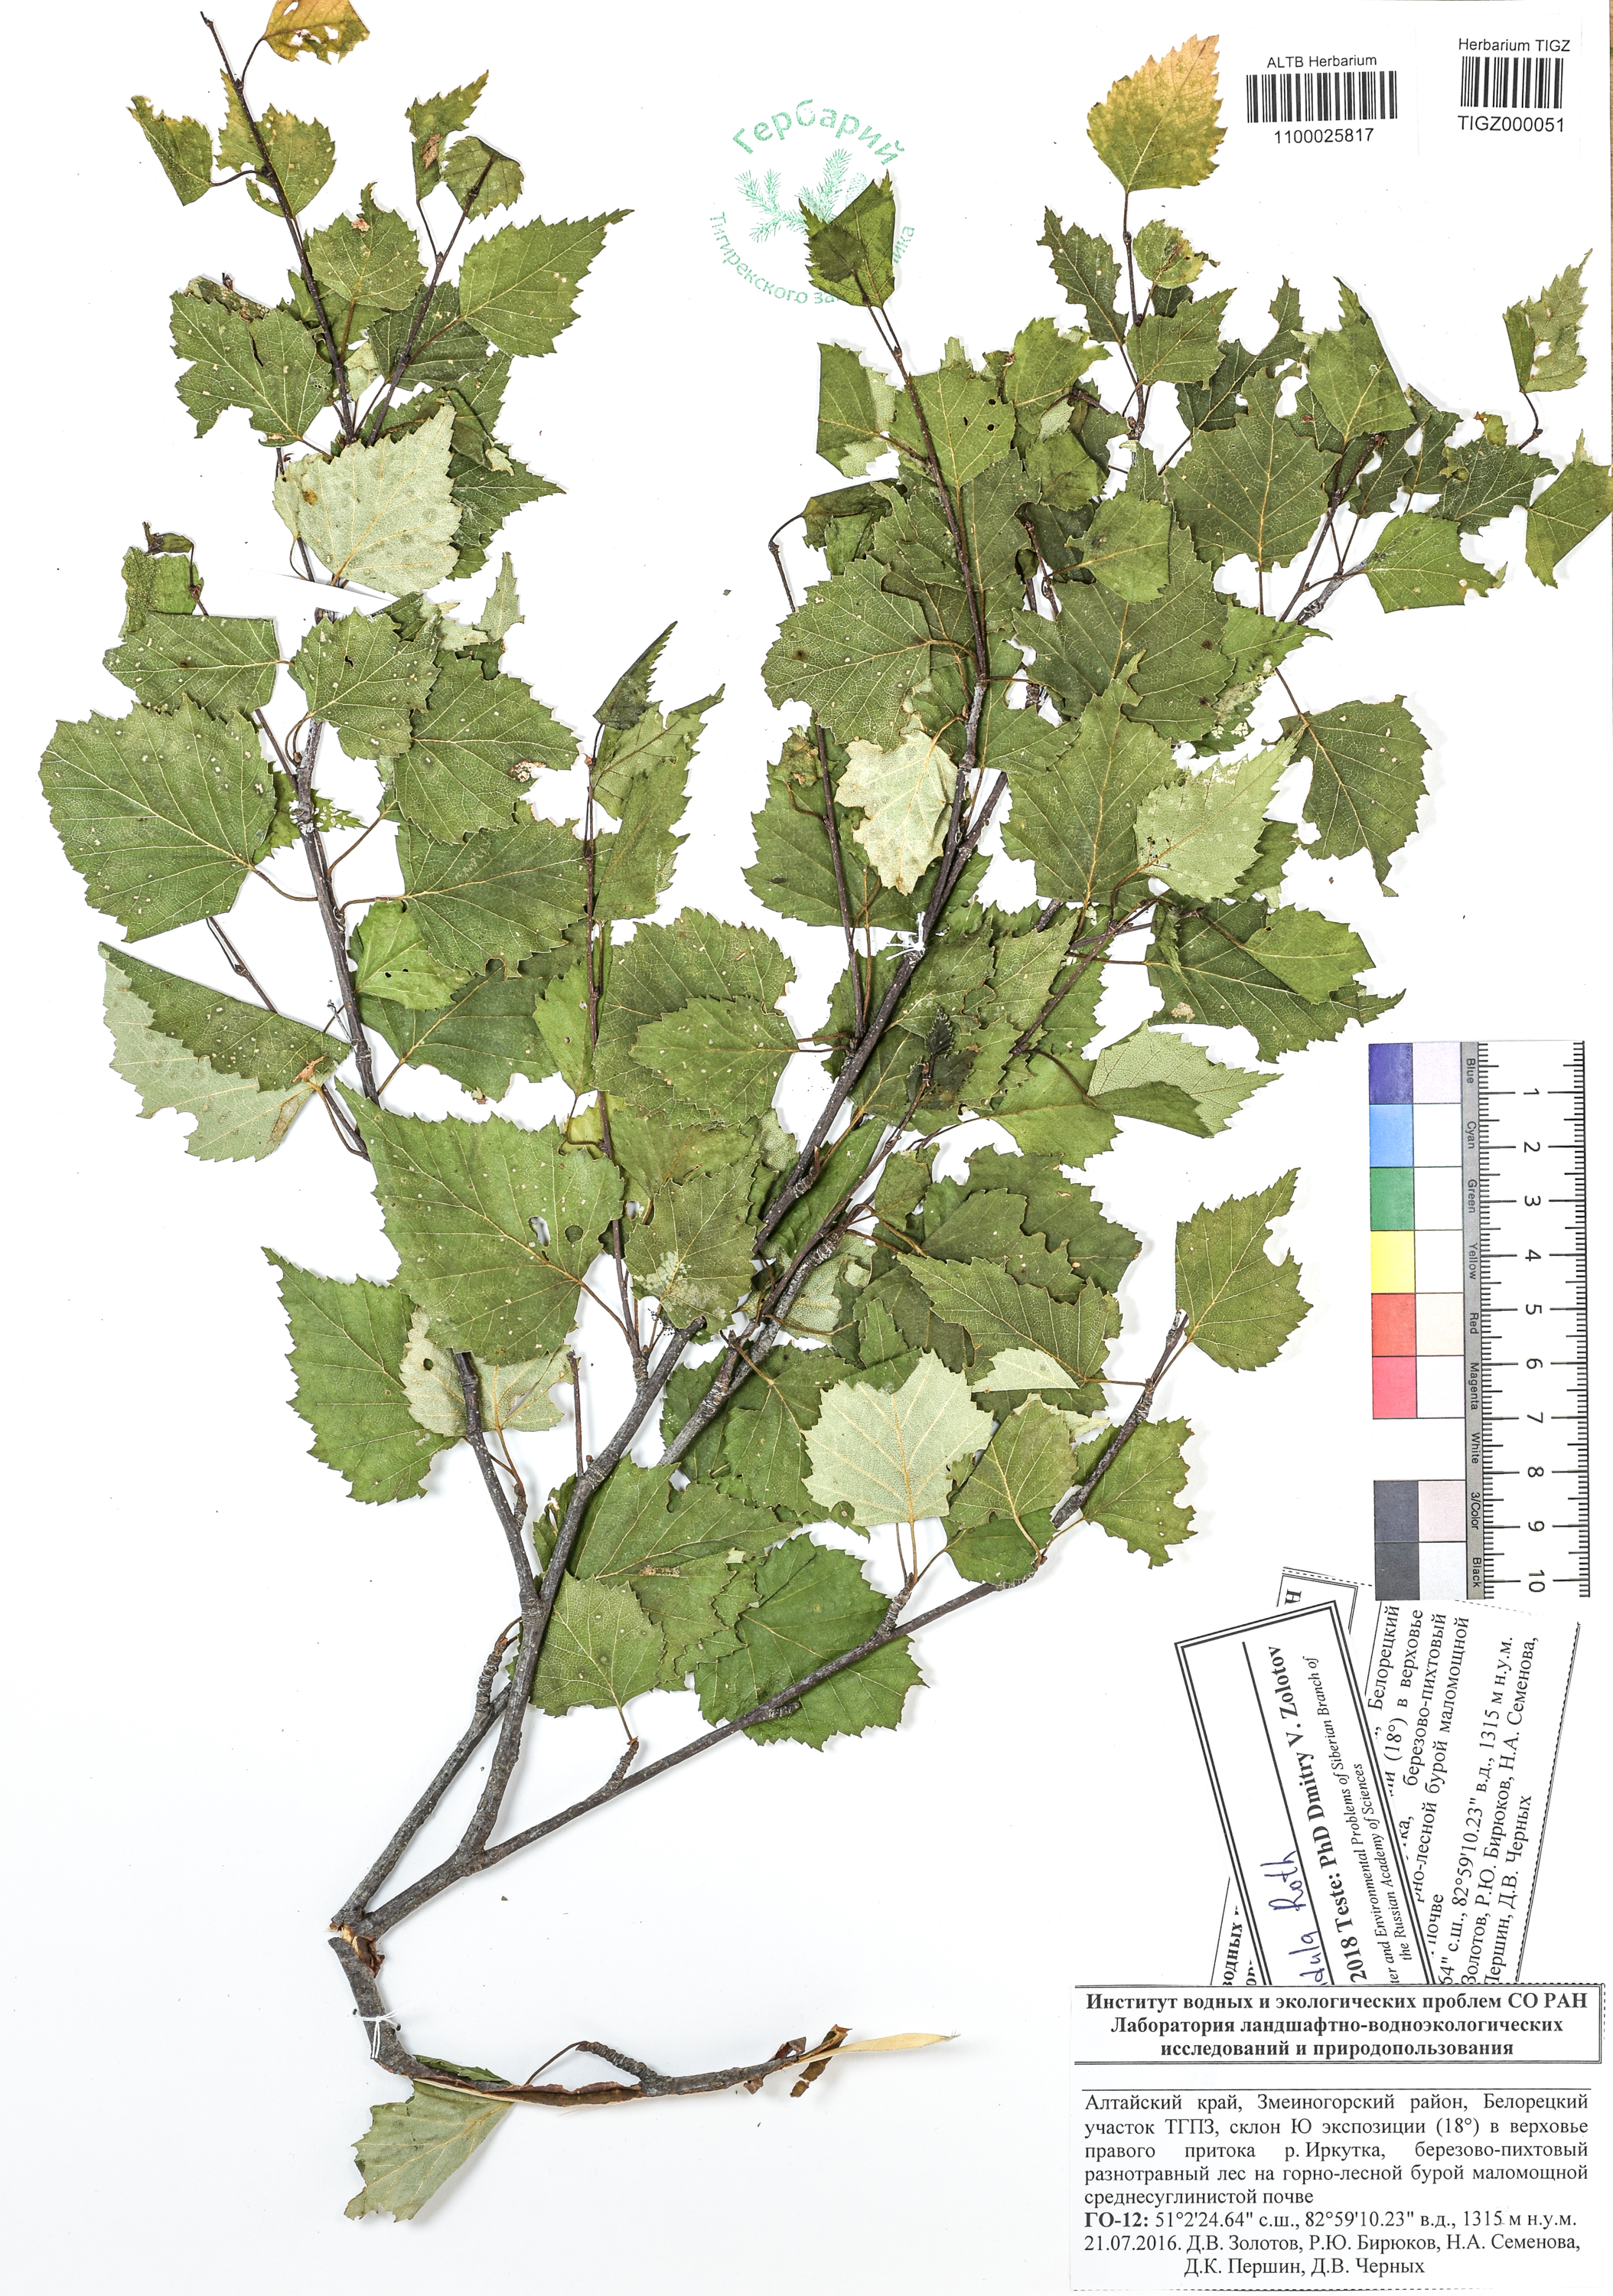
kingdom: Plantae
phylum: Tracheophyta
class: Magnoliopsida
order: Fagales
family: Betulaceae
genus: Betula
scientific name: Betula pendula
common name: Silver birch
